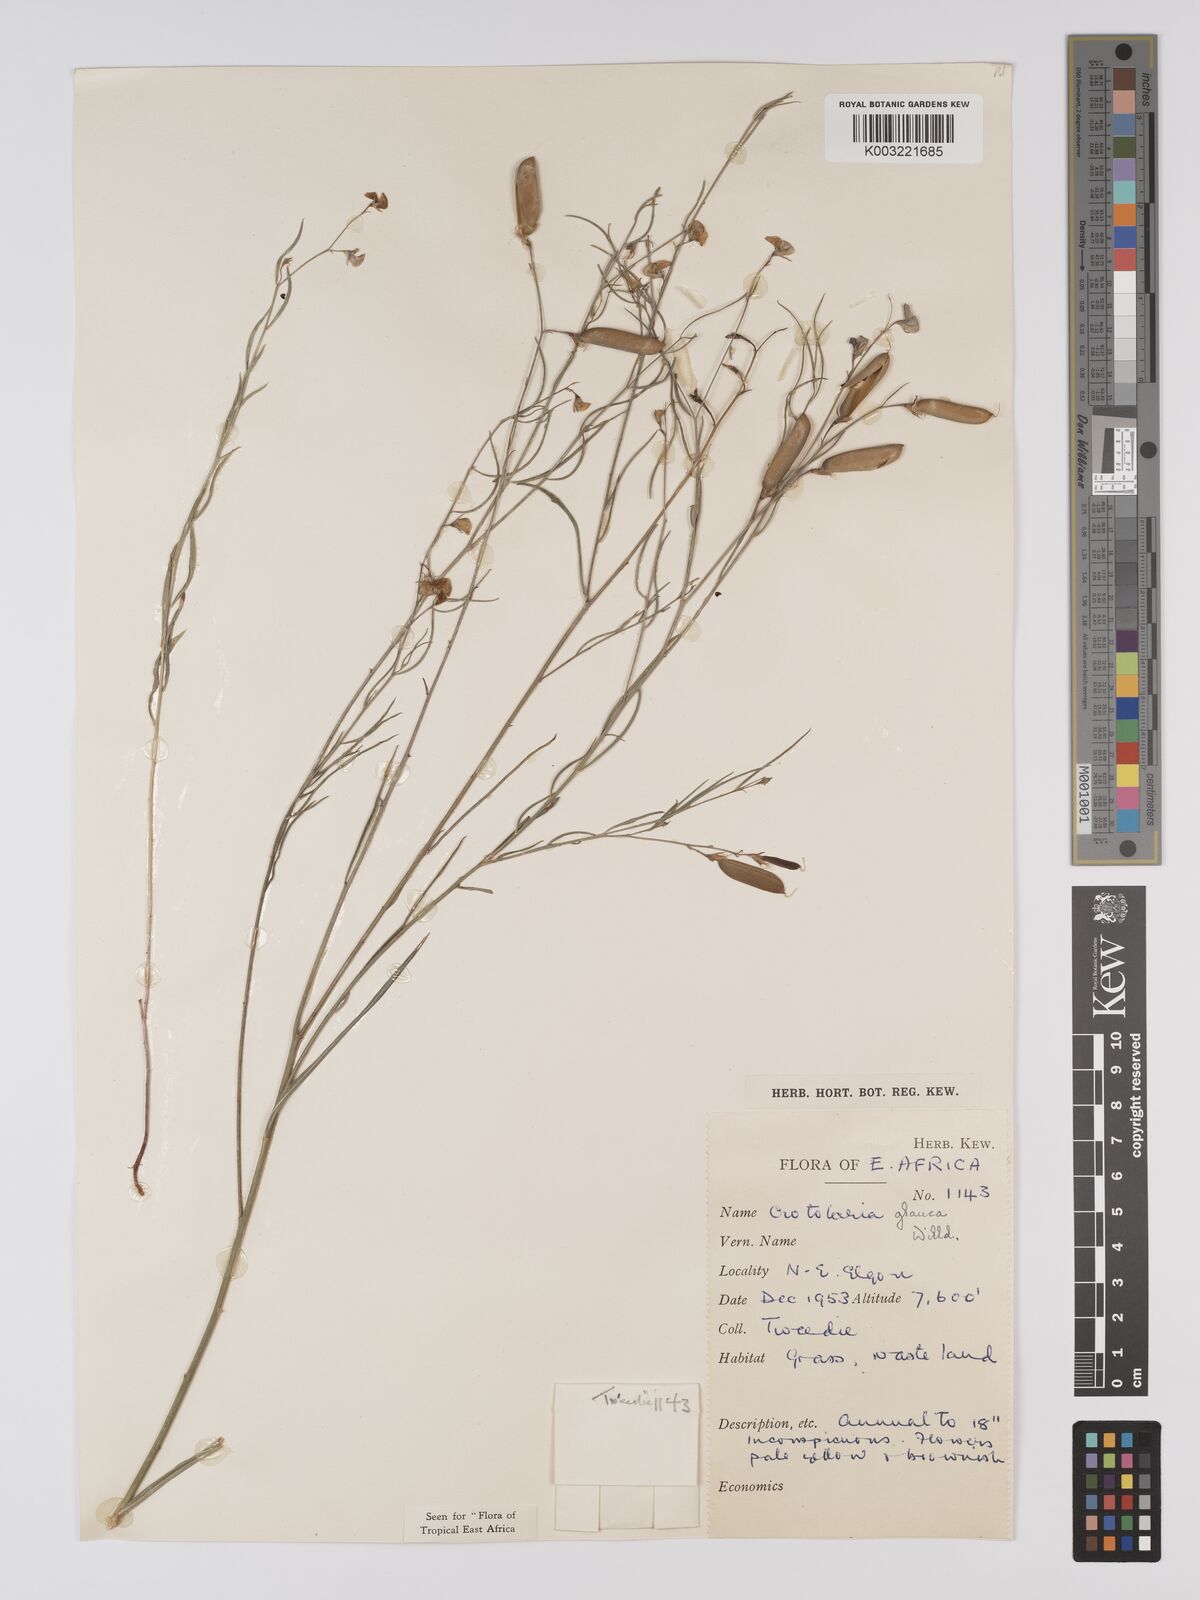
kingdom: Plantae
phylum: Tracheophyta
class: Magnoliopsida
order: Fabales
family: Fabaceae
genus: Crotalaria
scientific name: Crotalaria glauca
